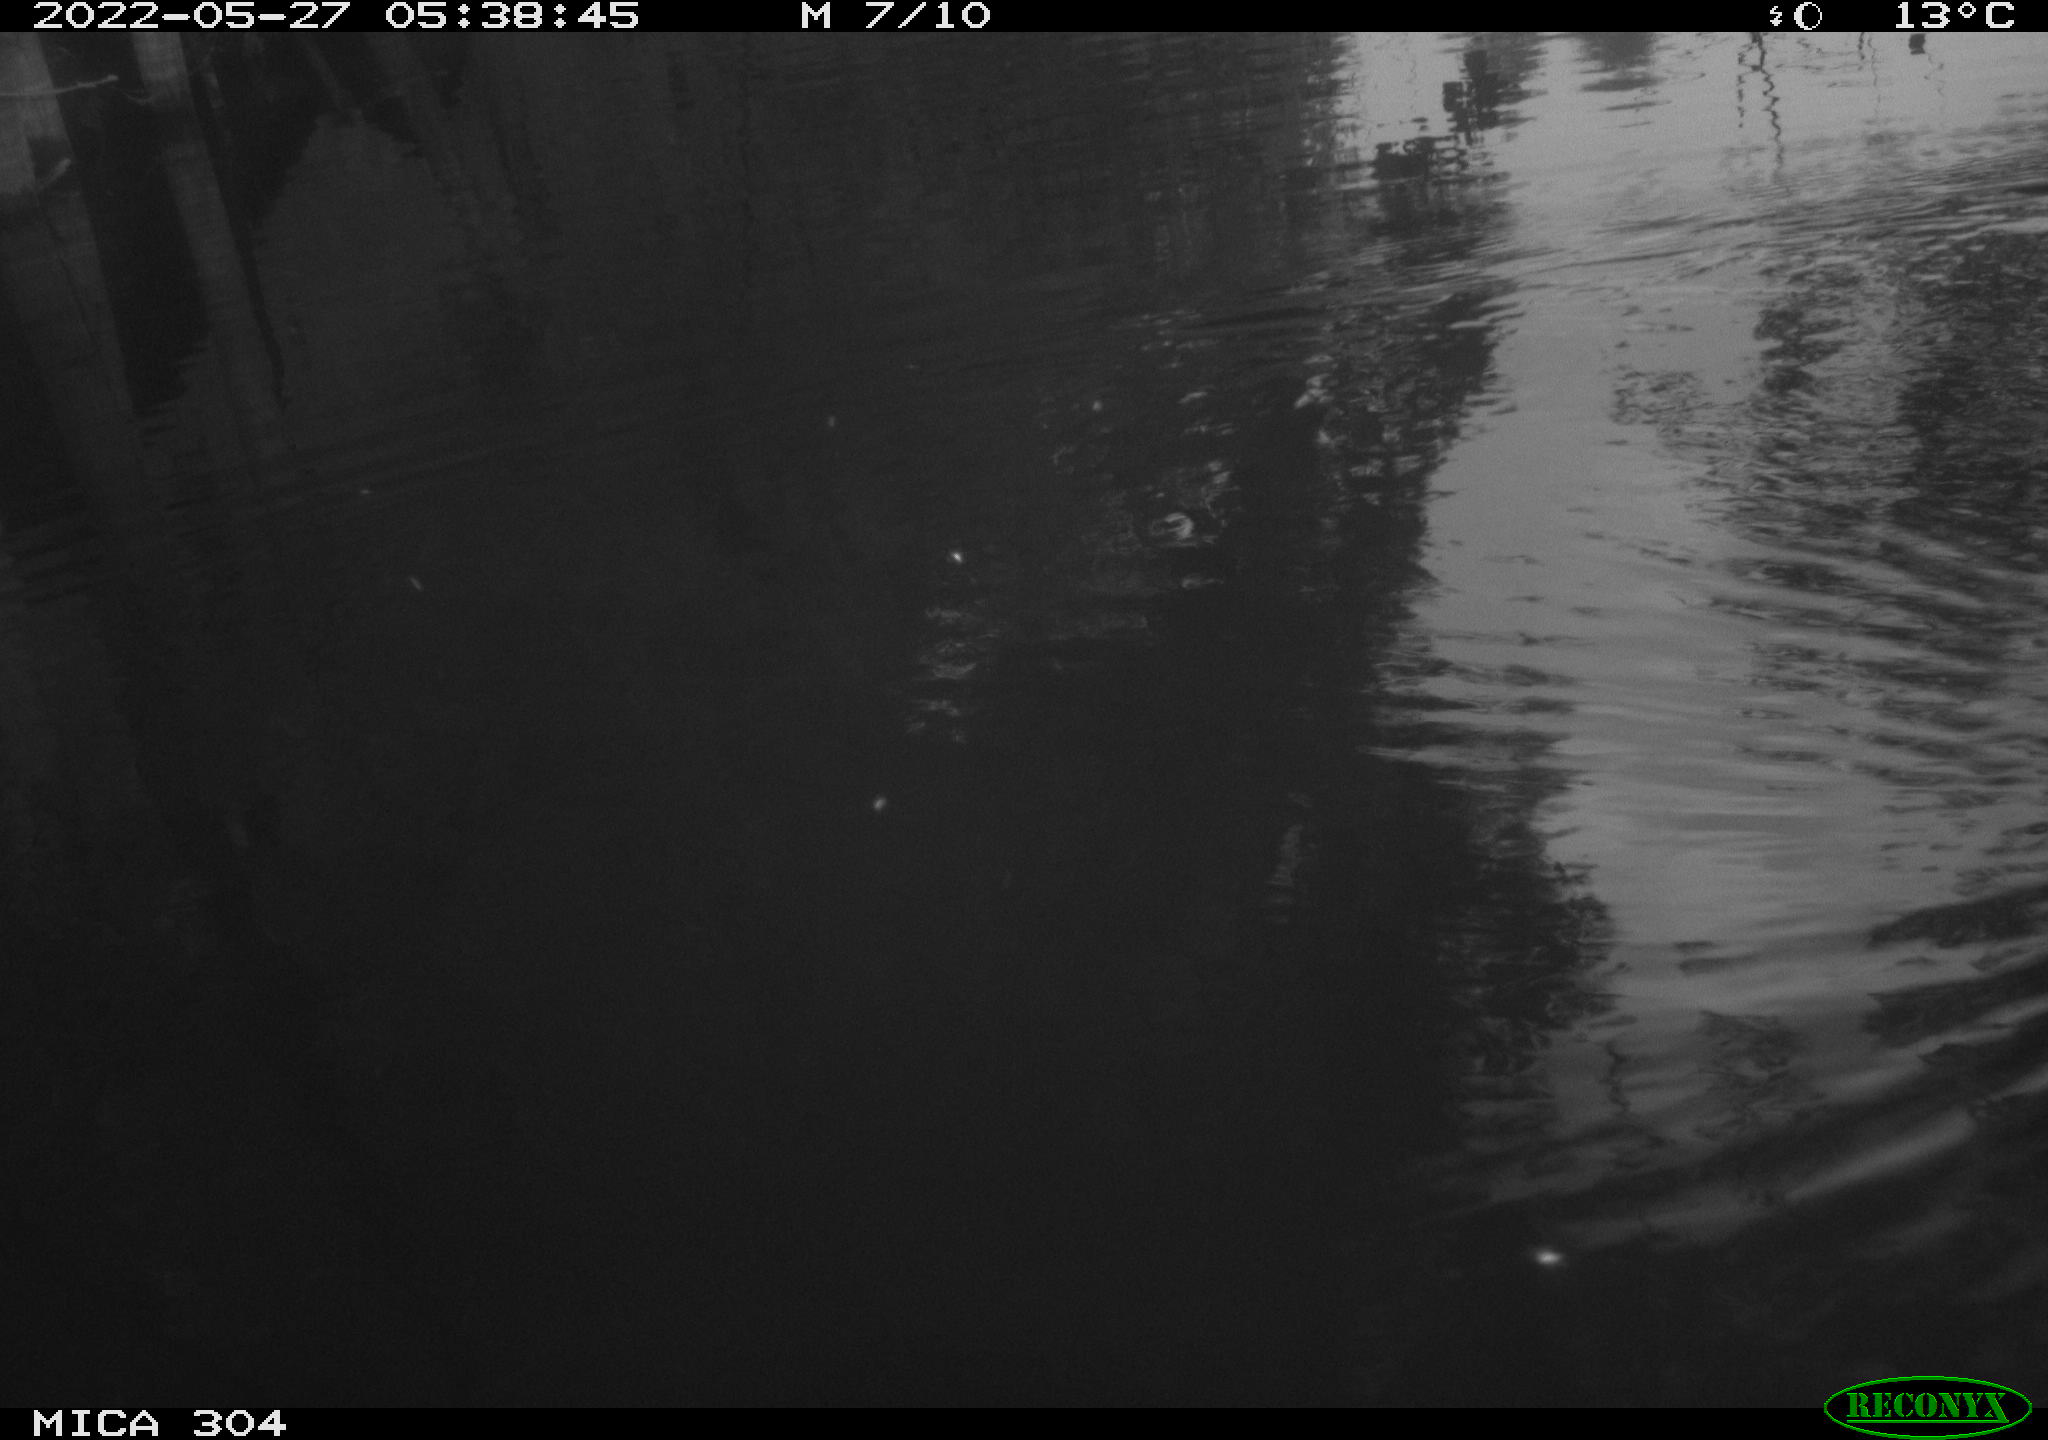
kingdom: Animalia
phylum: Chordata
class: Aves
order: Gruiformes
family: Rallidae
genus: Gallinula
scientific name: Gallinula chloropus
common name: Common moorhen
